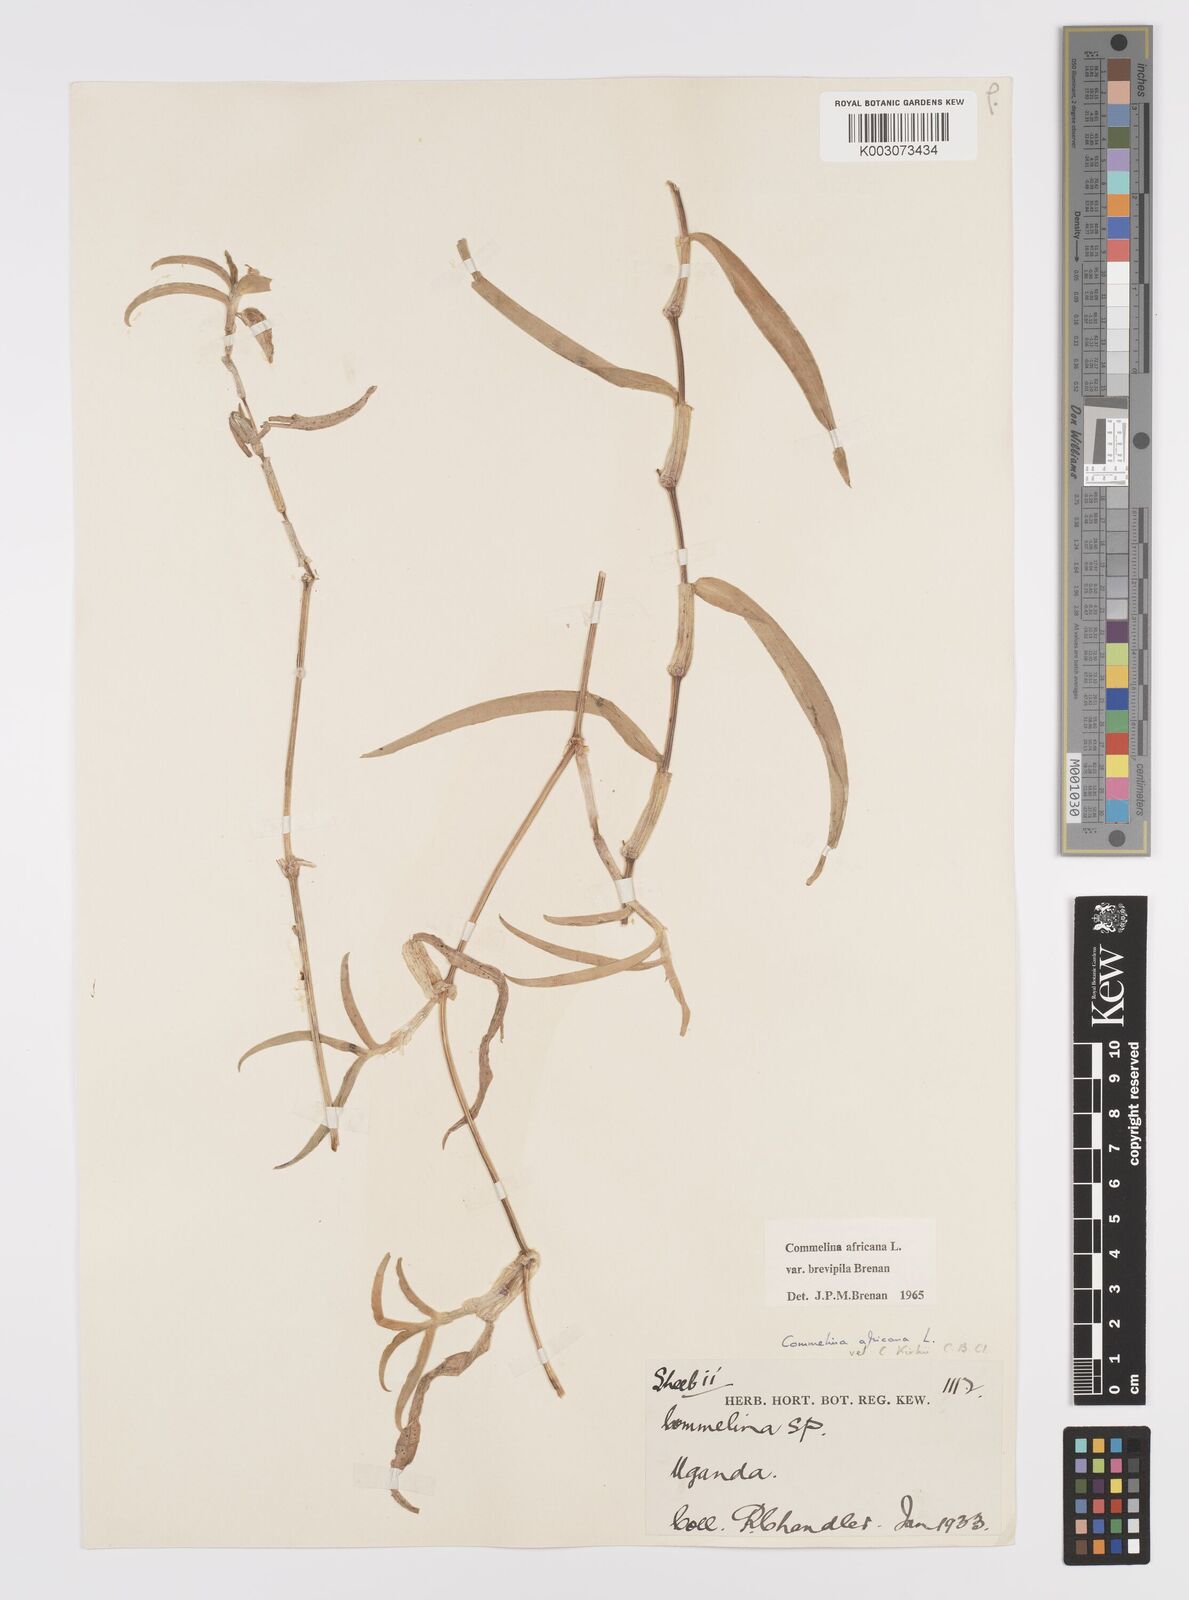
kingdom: Plantae
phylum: Tracheophyta
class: Liliopsida
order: Commelinales
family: Commelinaceae
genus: Commelina
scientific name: Commelina africana
